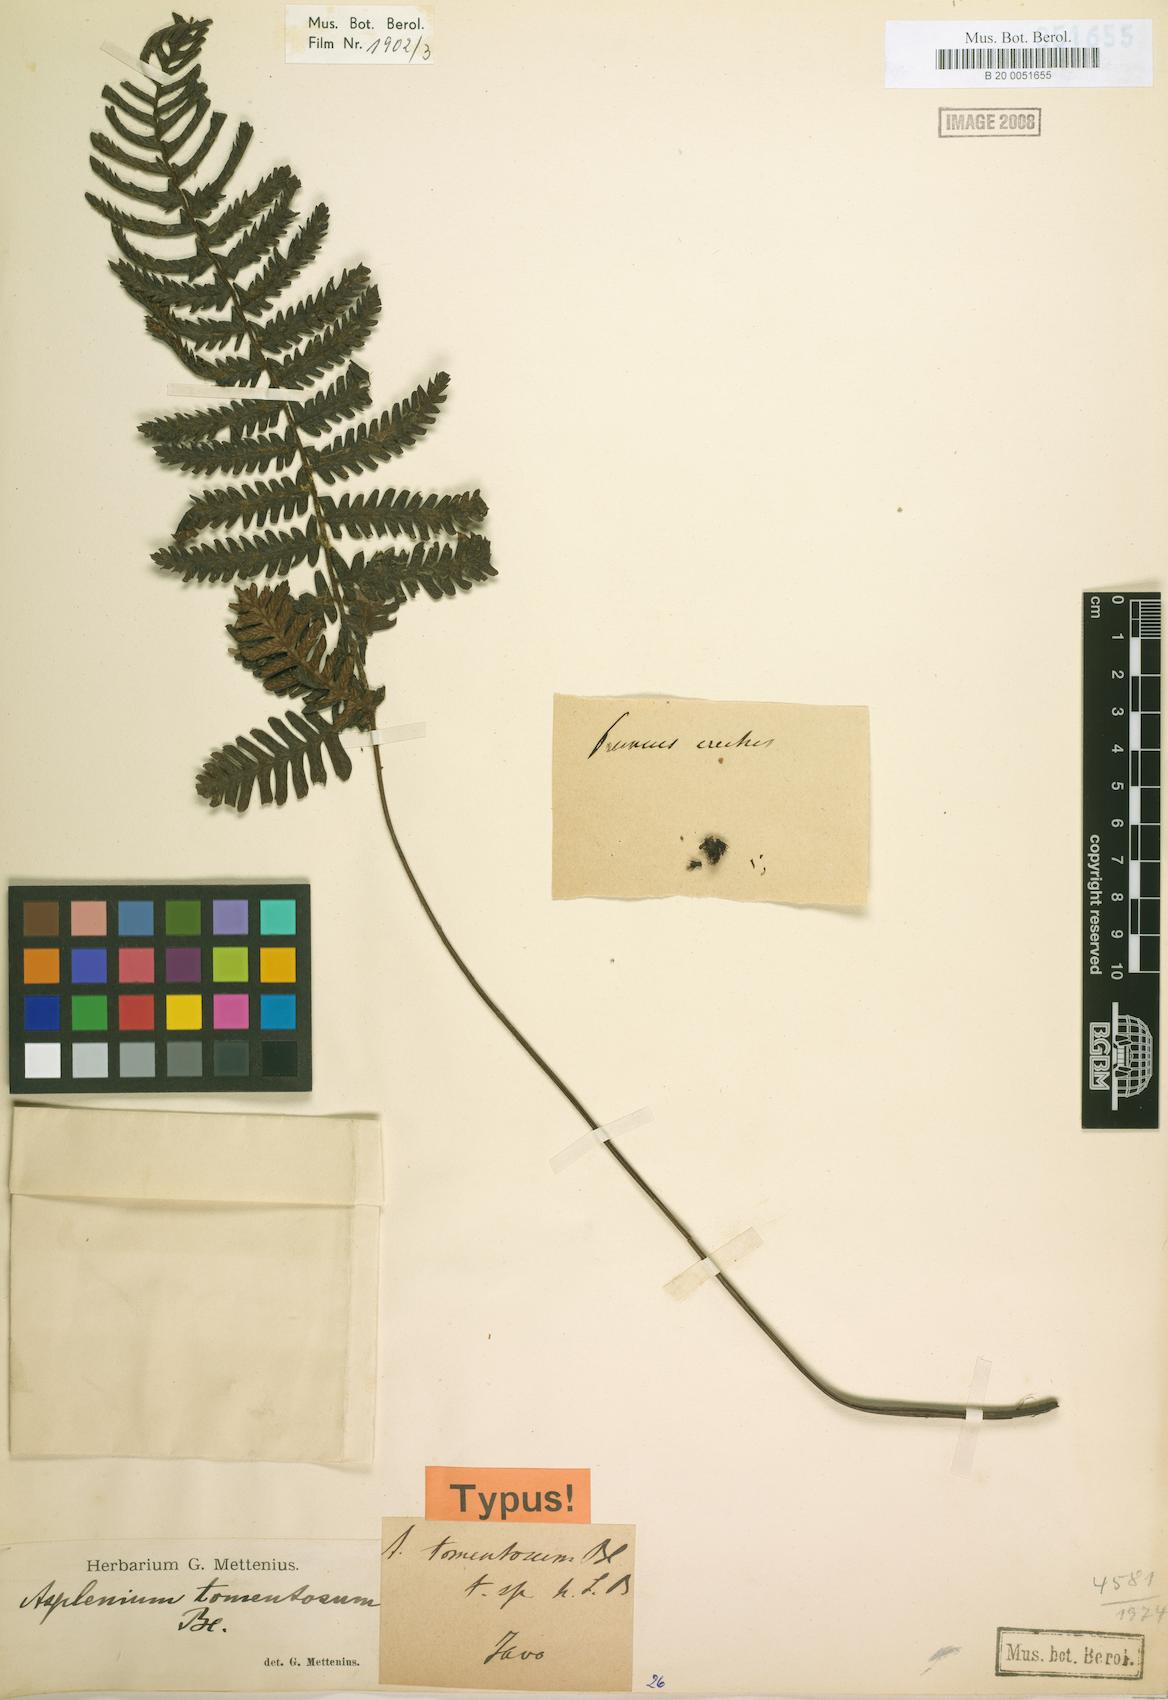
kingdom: Plantae
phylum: Tracheophyta
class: Polypodiopsida
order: Polypodiales
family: Athyriaceae
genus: Diplazium
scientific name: Diplazium tomentosum
